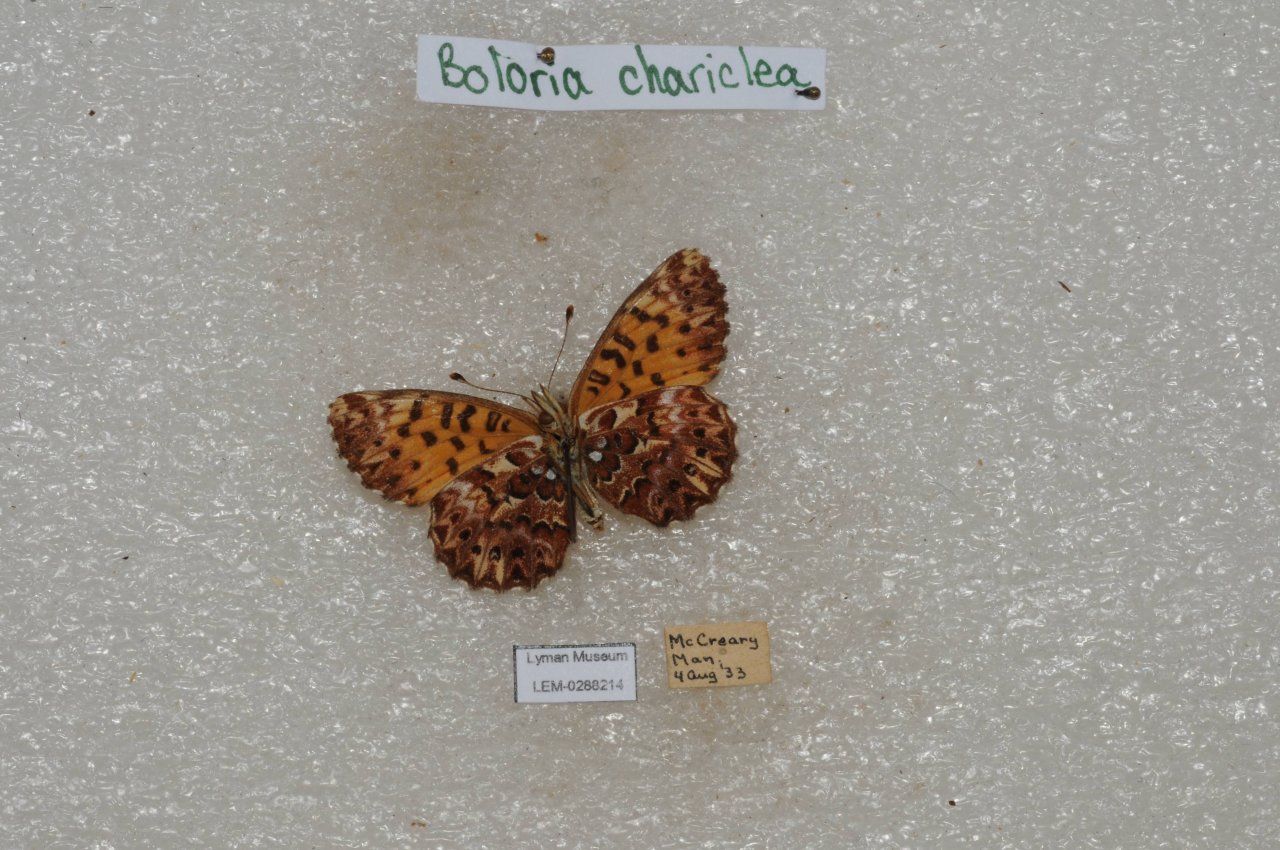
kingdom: Animalia
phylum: Arthropoda
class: Insecta
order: Lepidoptera
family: Nymphalidae
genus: Boloria
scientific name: Boloria chariclea
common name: Arctic Fritillary
